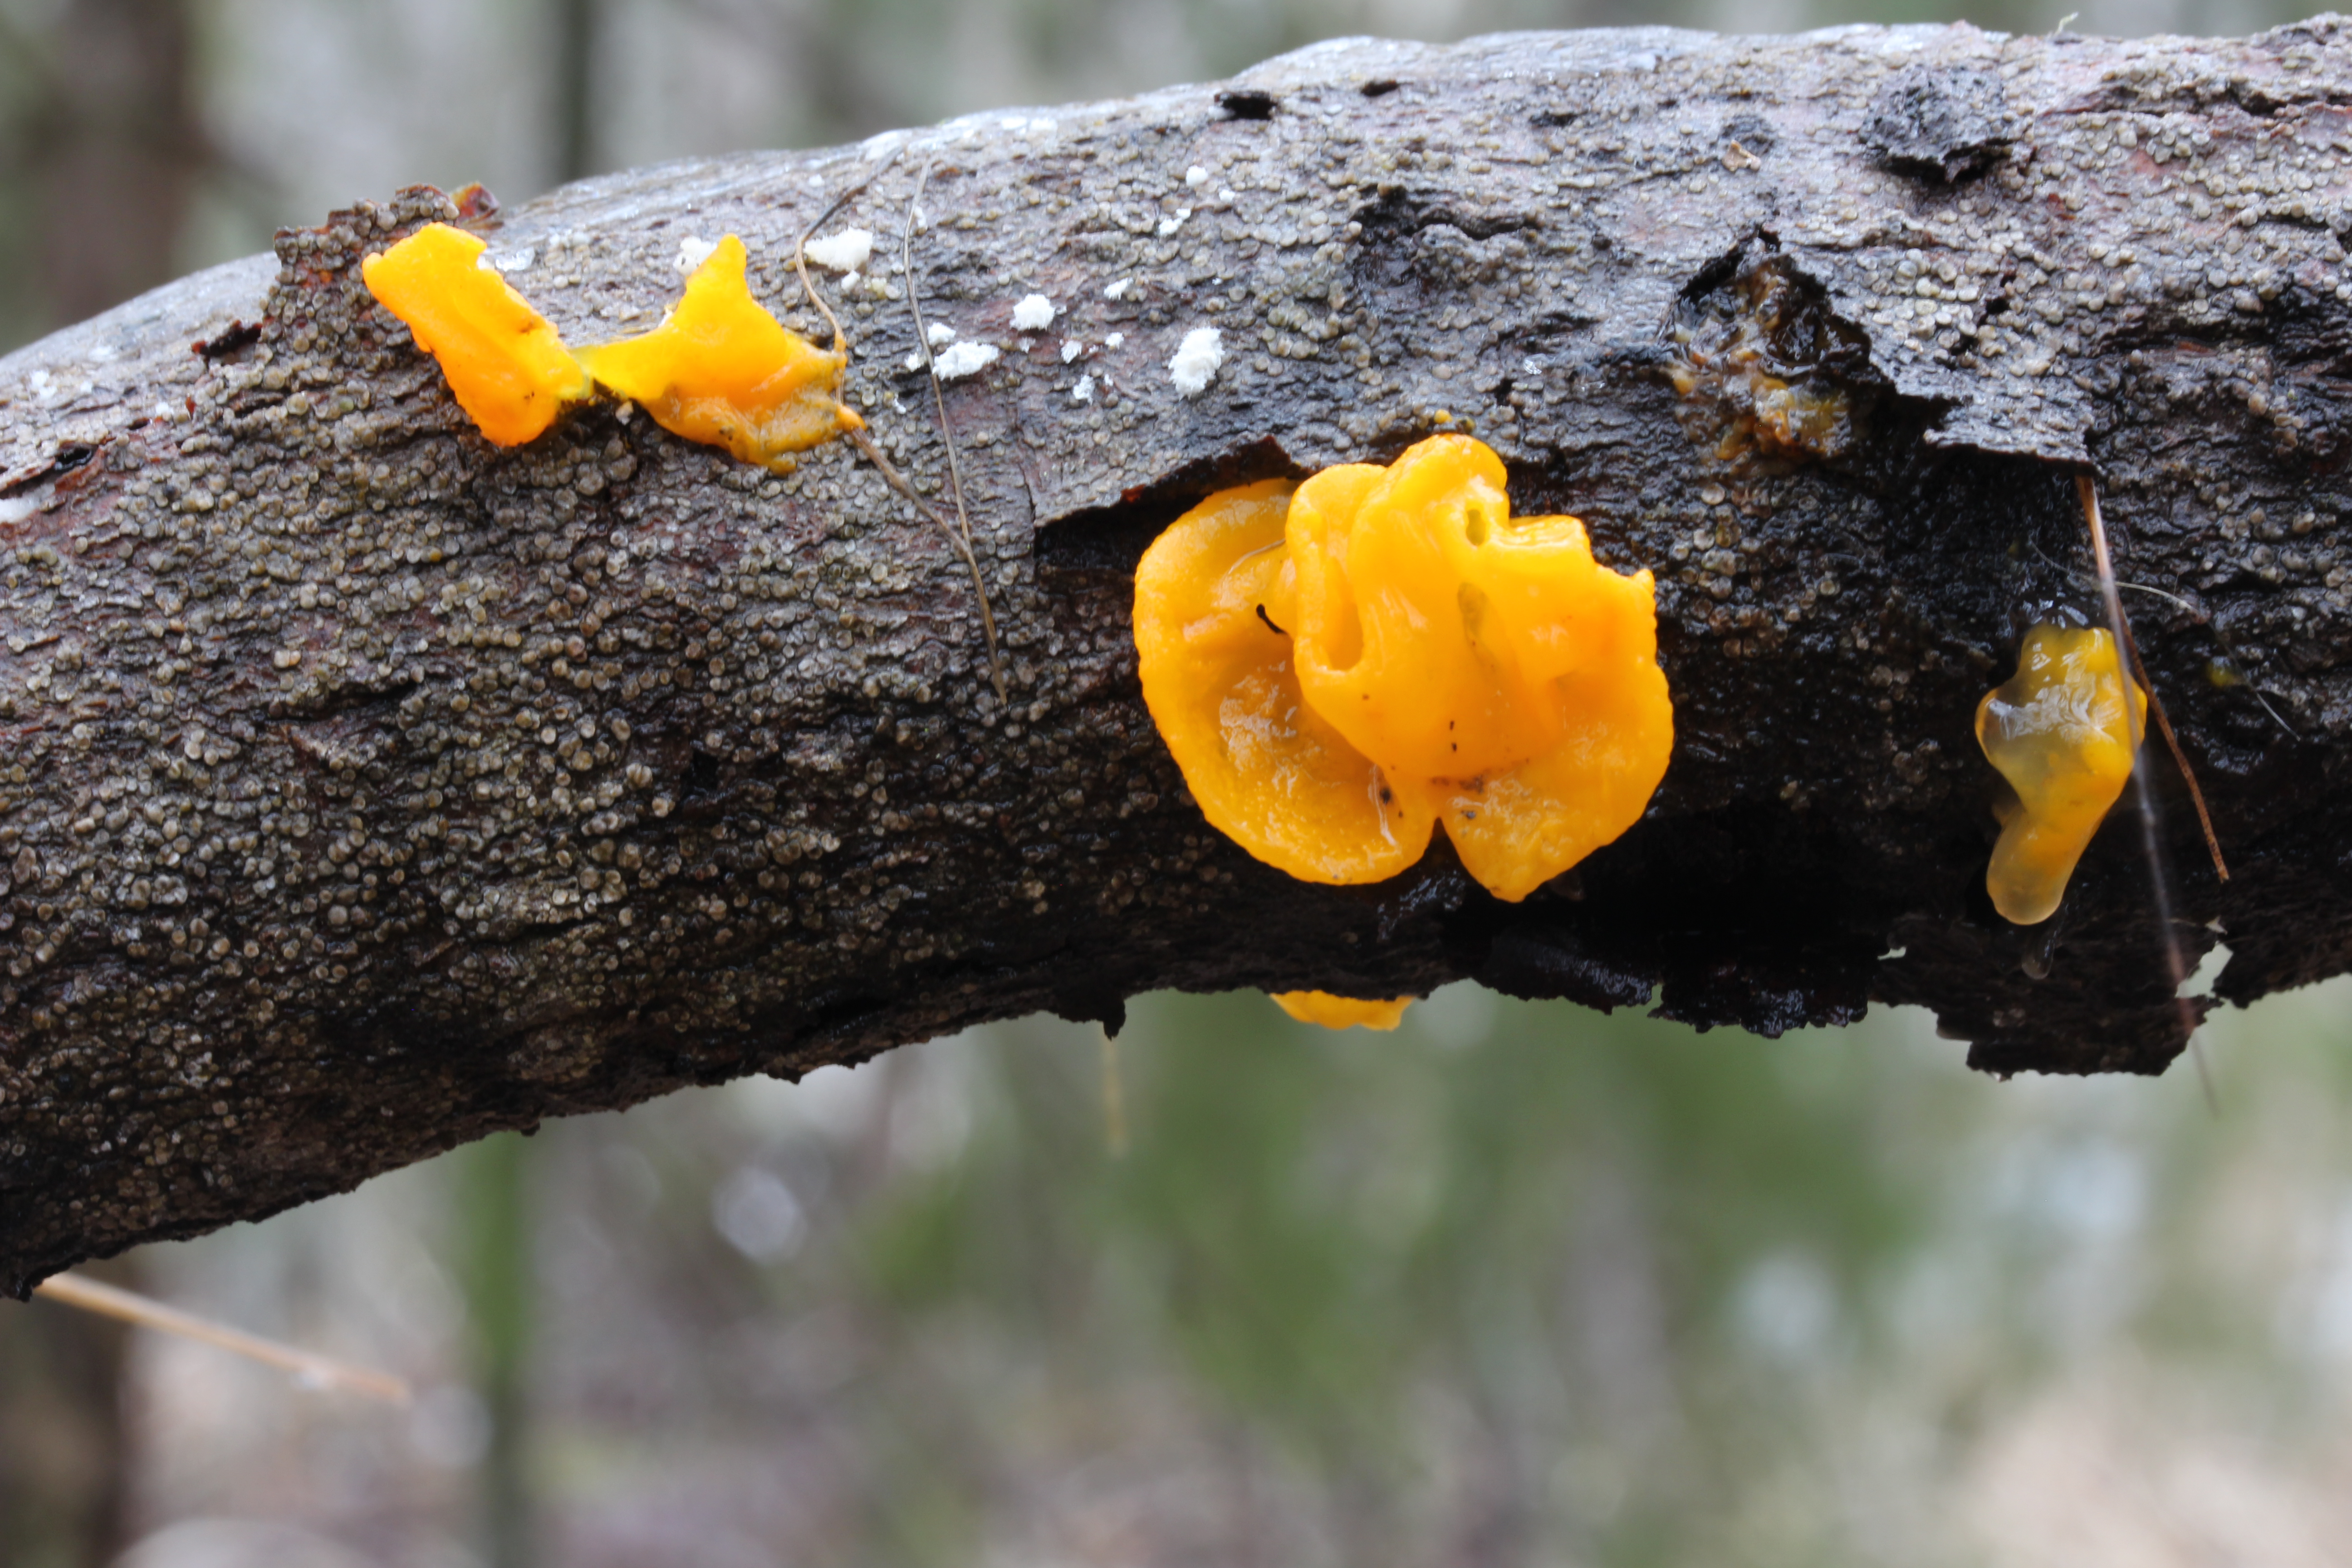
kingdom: Fungi
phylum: Basidiomycota
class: Tremellomycetes
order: Tremellales
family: Tremellaceae
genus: Tremella
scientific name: Tremella mesenterica
